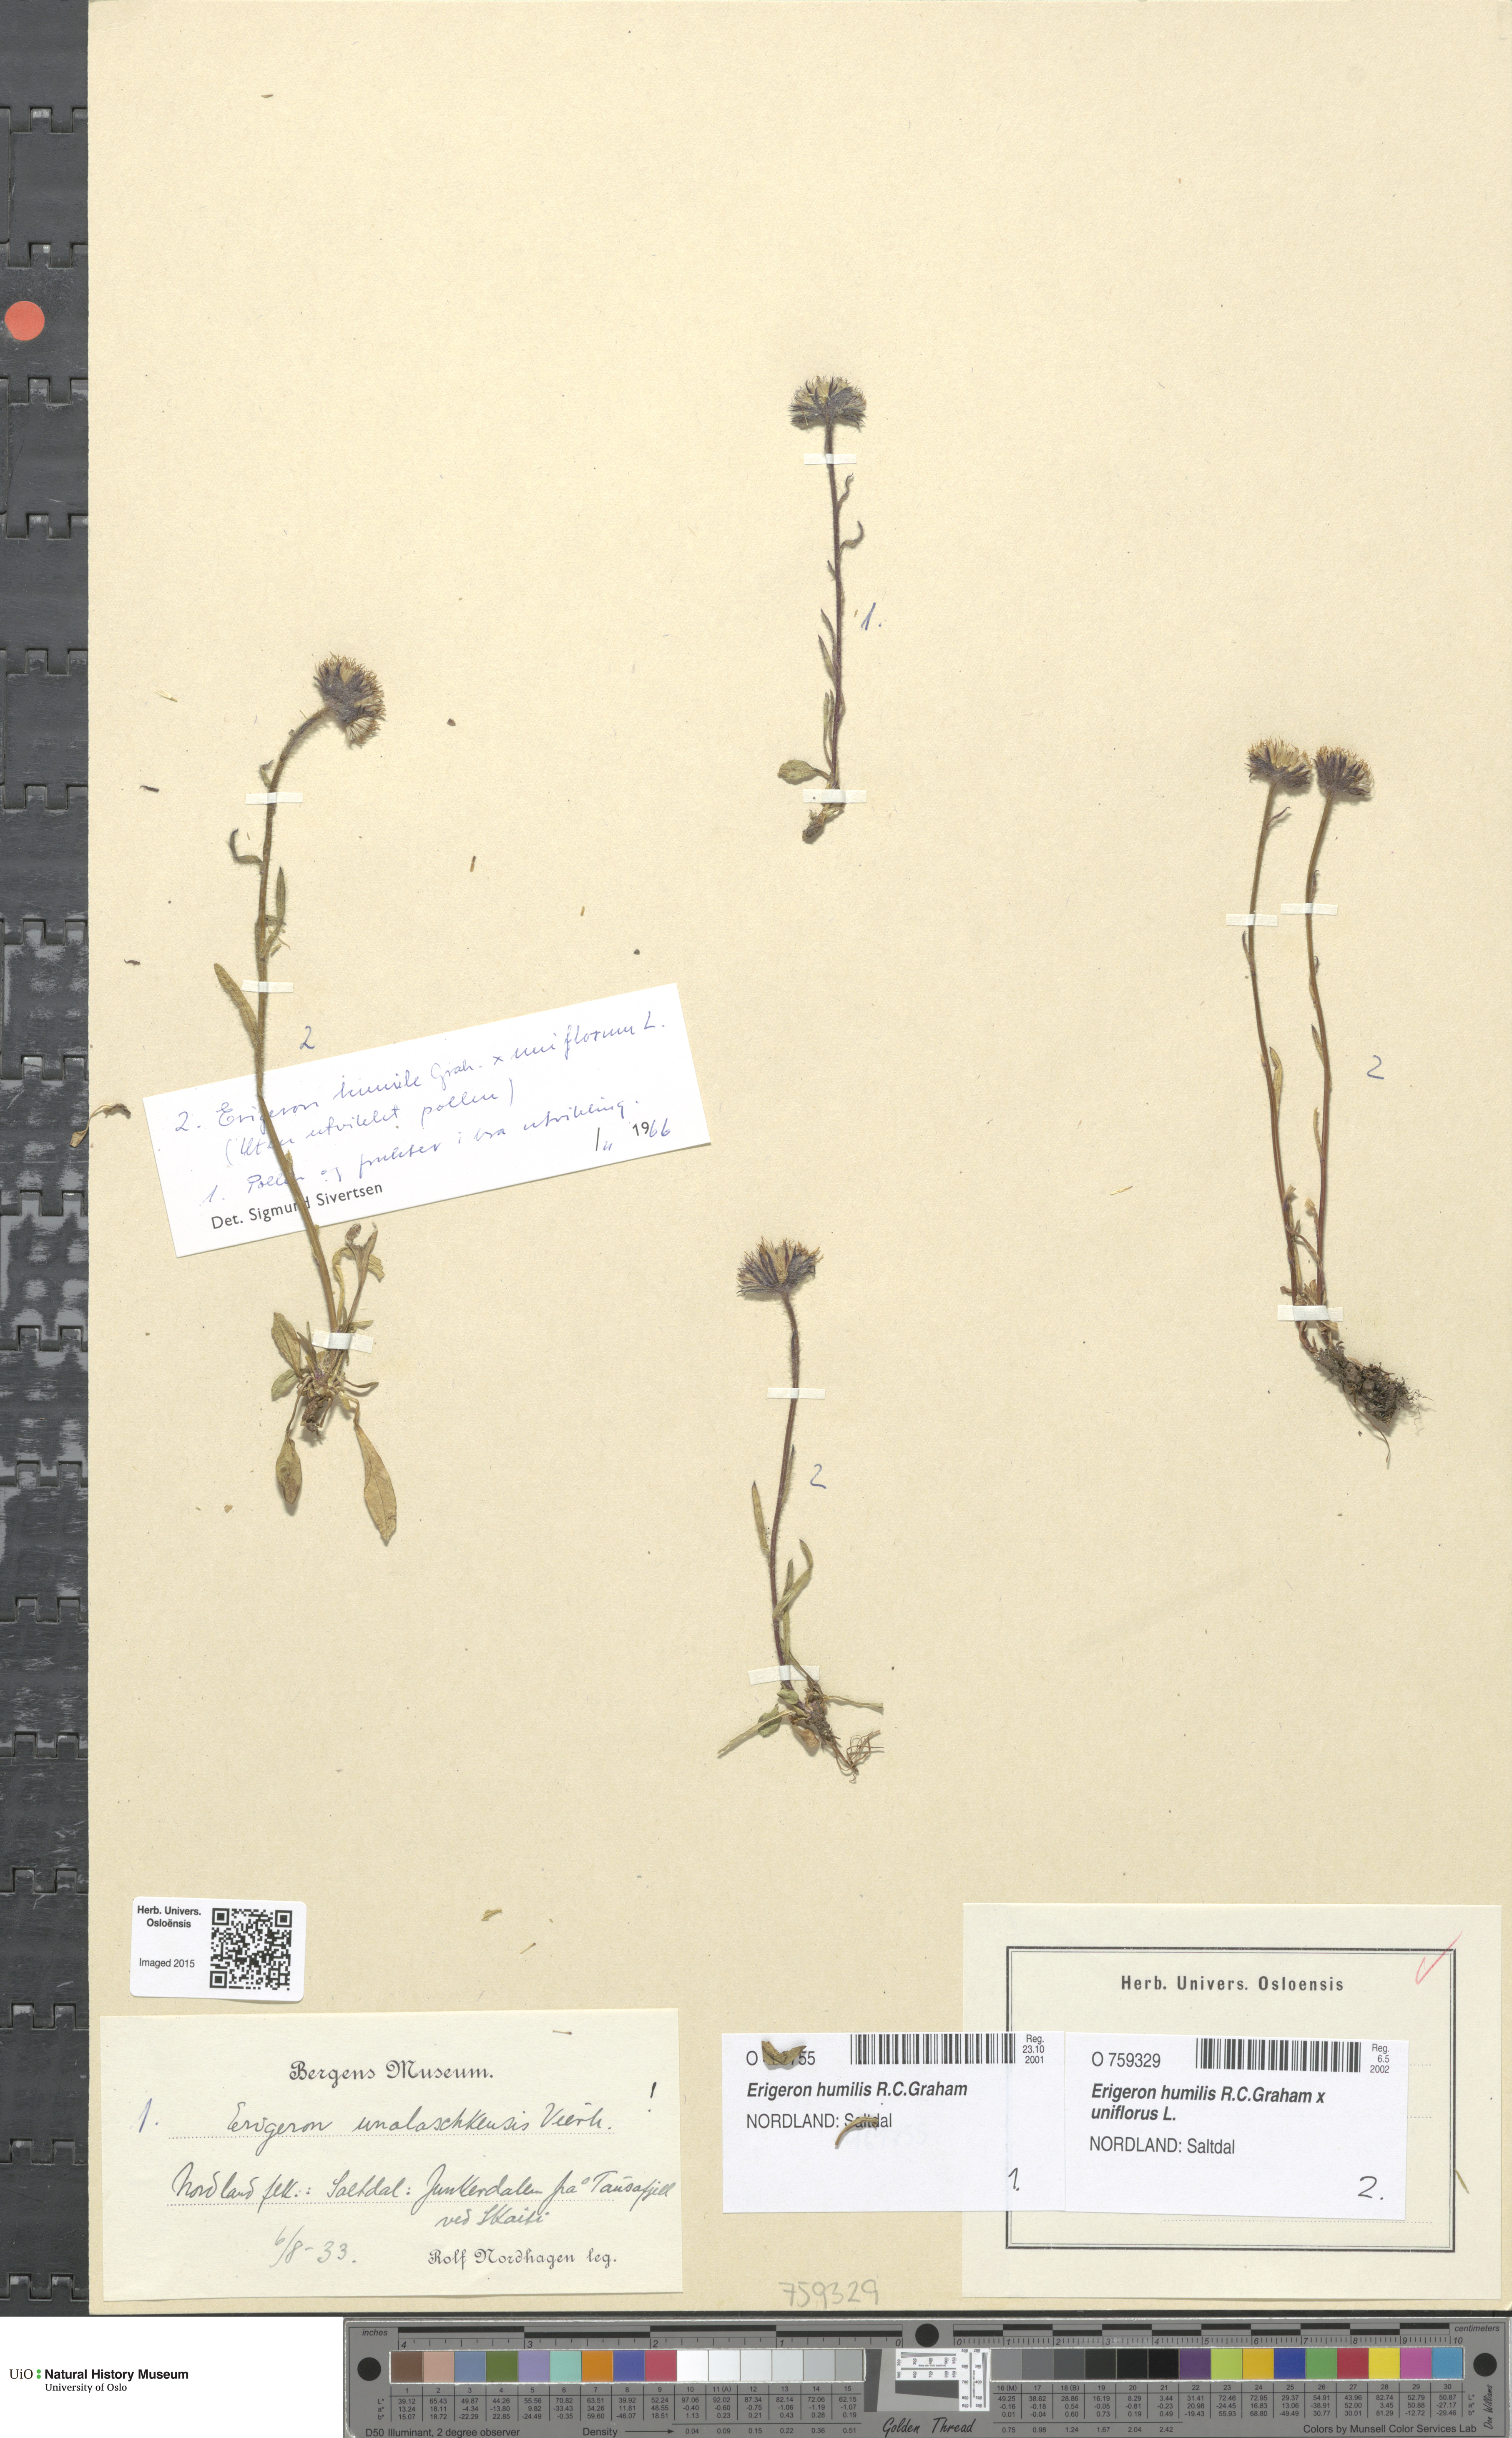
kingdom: Plantae
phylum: Tracheophyta
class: Magnoliopsida
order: Asterales
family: Asteraceae
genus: Erigeron
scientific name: Erigeron
